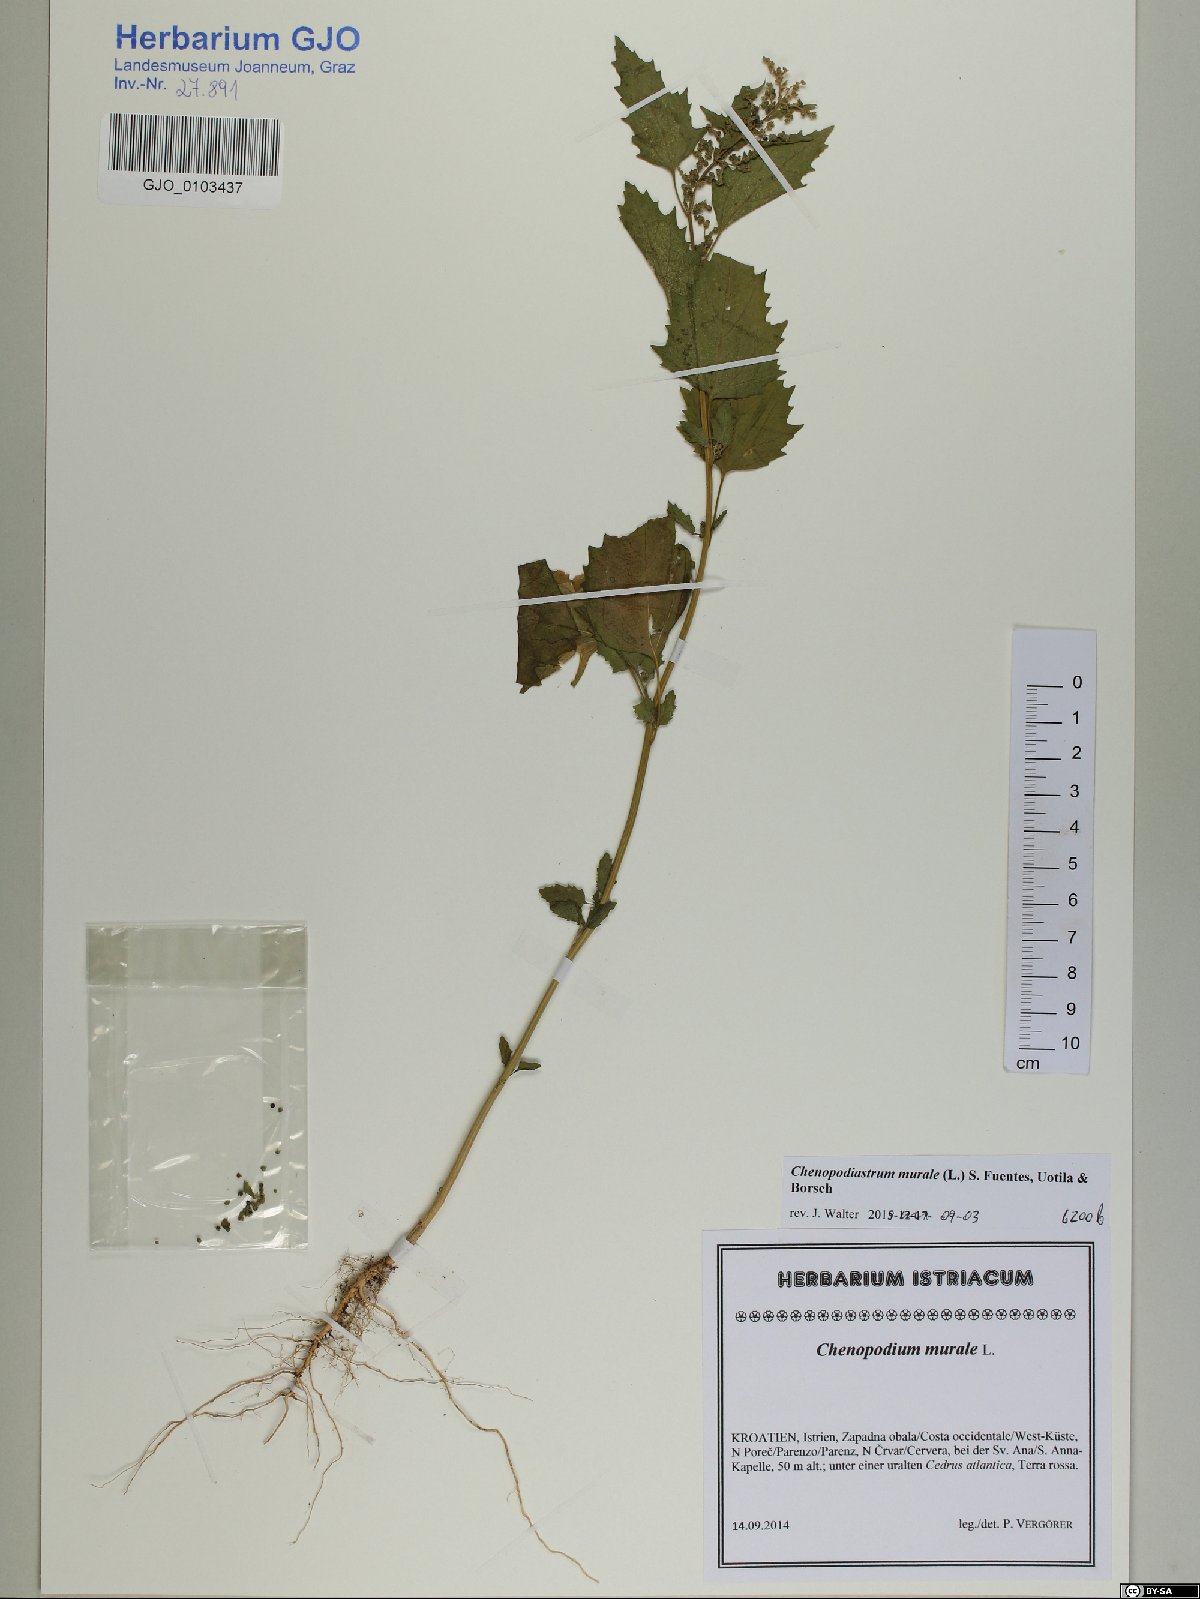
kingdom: Plantae
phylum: Tracheophyta
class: Magnoliopsida
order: Caryophyllales
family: Amaranthaceae
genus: Chenopodiastrum
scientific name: Chenopodiastrum murale
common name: Sowbane
